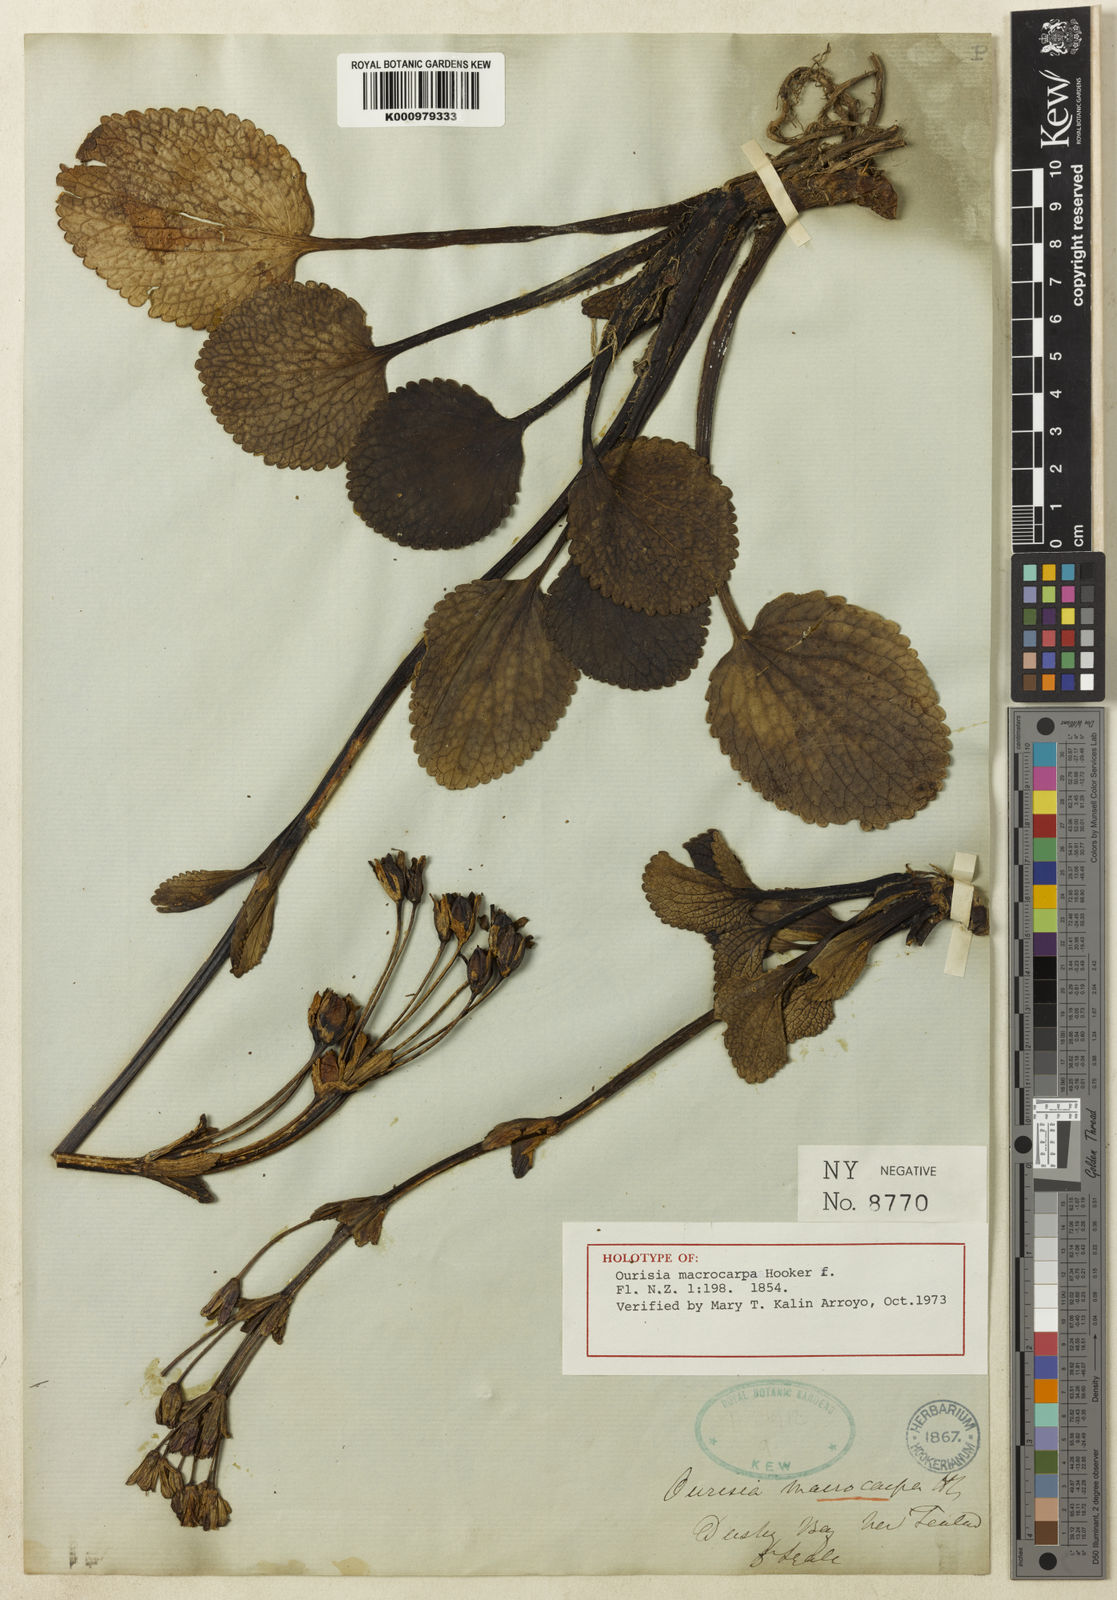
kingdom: Plantae
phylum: Tracheophyta
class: Magnoliopsida
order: Lamiales
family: Plantaginaceae
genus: Ourisia
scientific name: Ourisia macrocarpa
